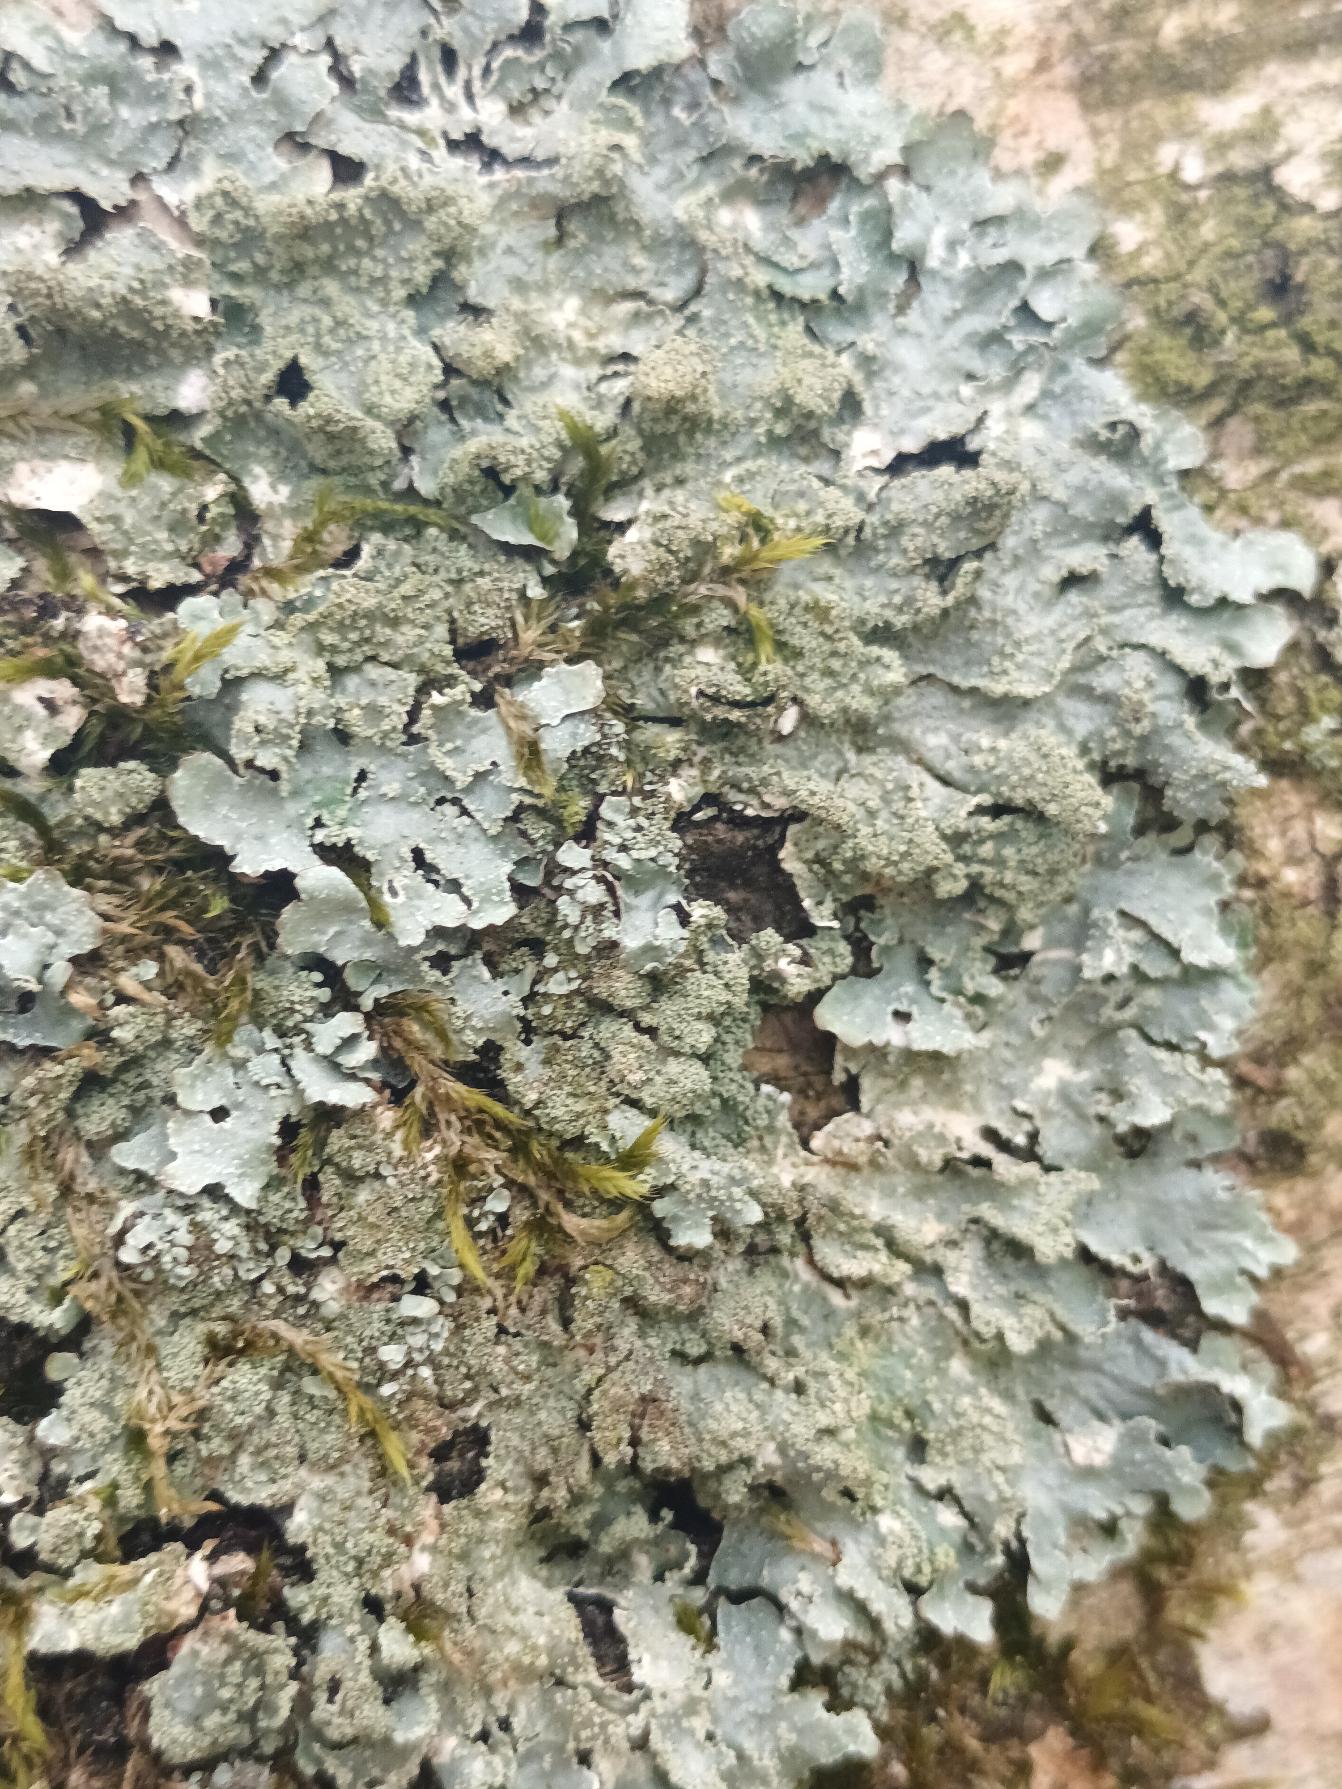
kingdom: Fungi
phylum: Ascomycota
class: Lecanoromycetes
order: Lecanorales
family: Parmeliaceae
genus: Parmelia
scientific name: Parmelia
